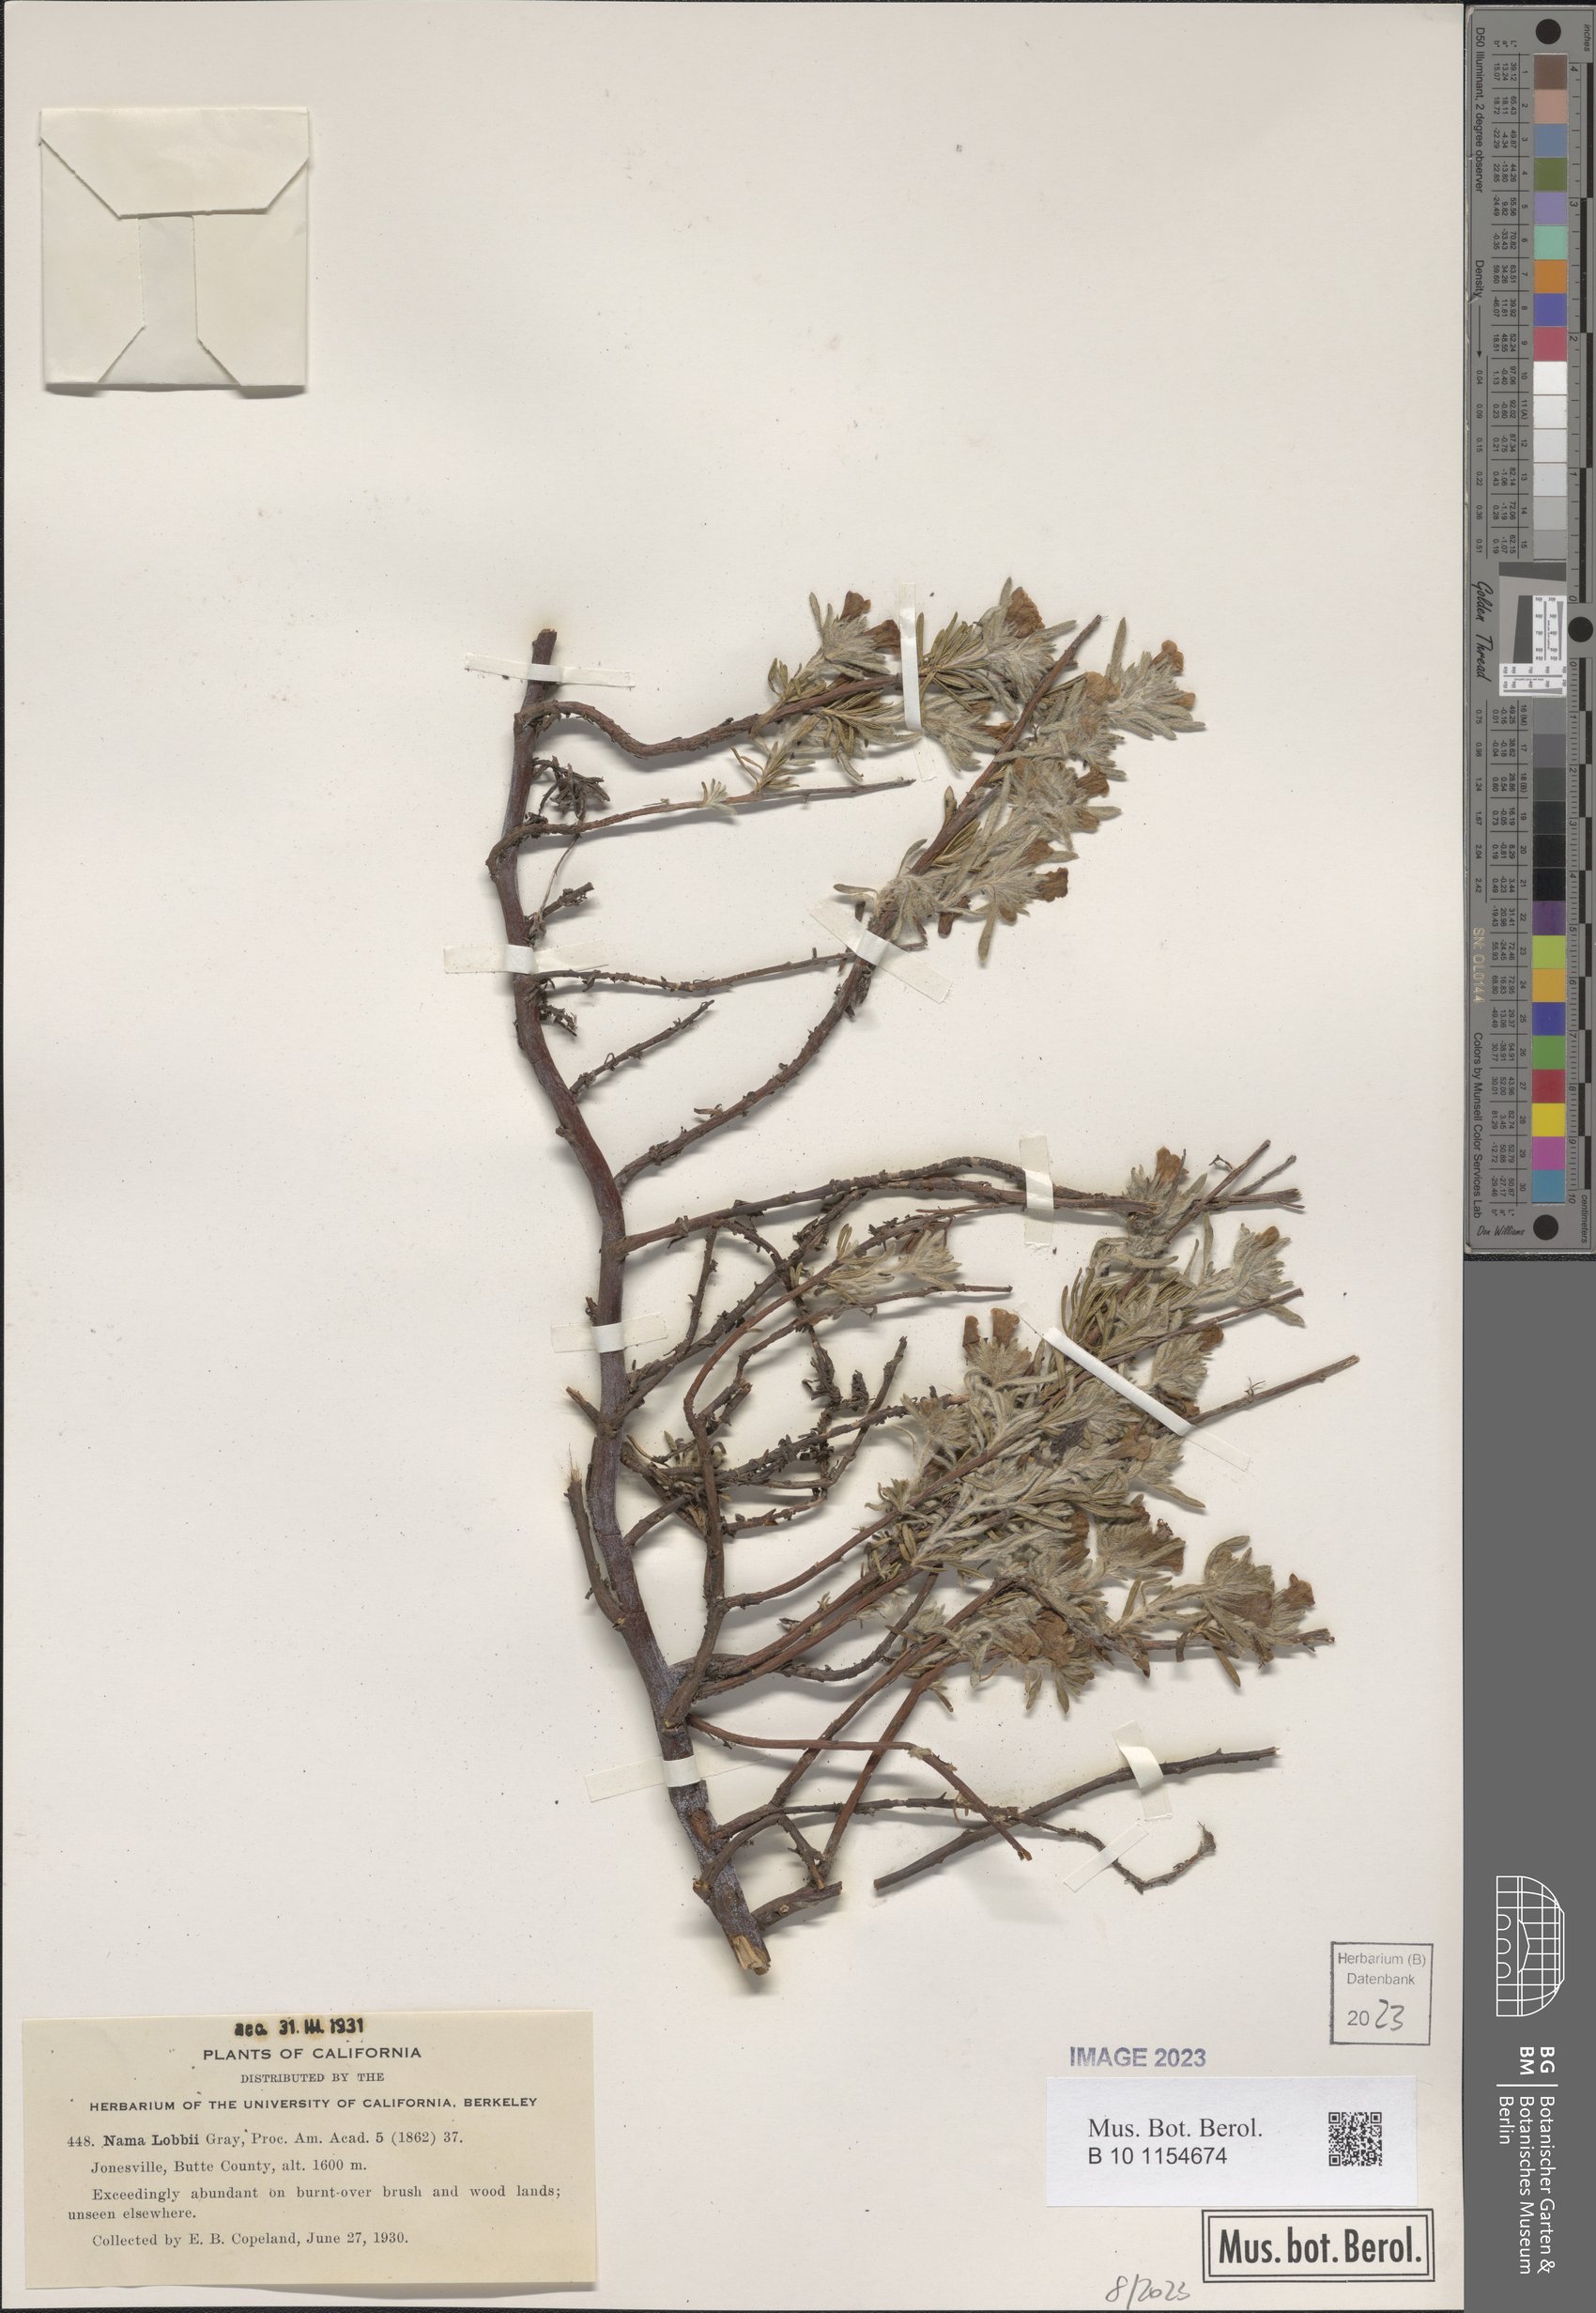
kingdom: Plantae
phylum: Tracheophyta
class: Magnoliopsida
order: Boraginales
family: Namaceae
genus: Nama
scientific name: Nama lobbii
